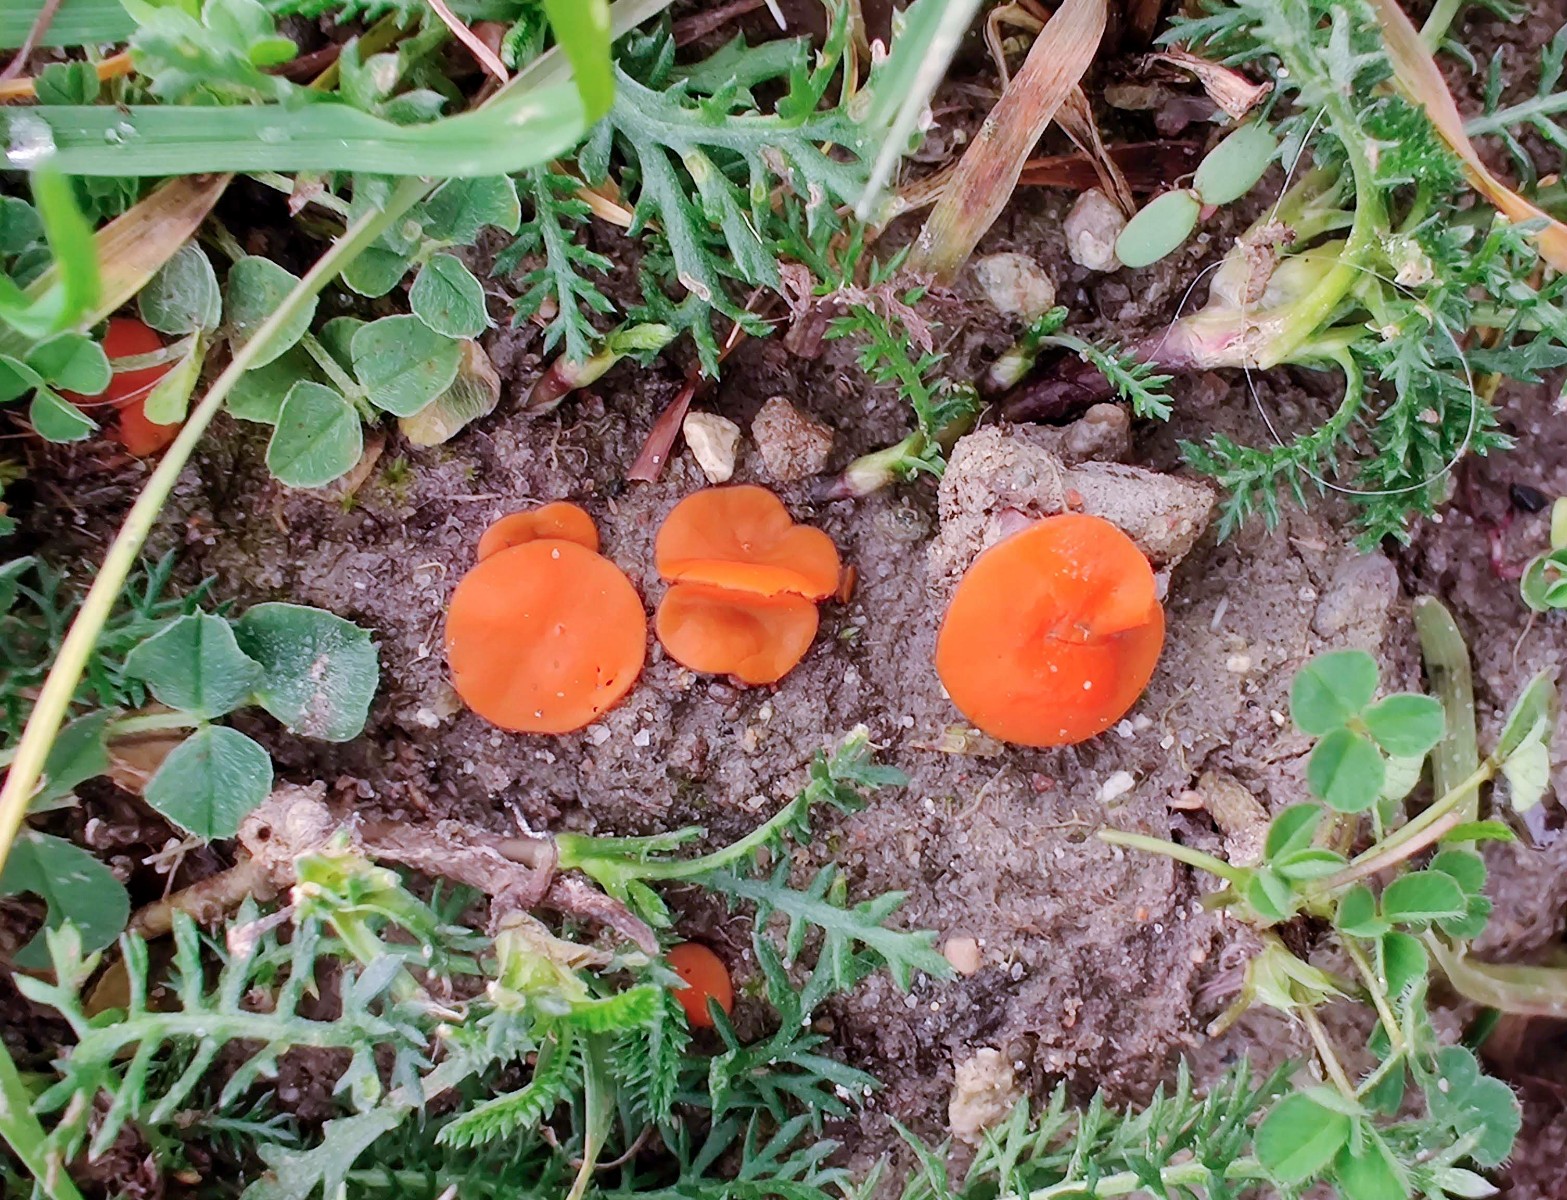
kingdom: Fungi
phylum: Ascomycota
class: Pezizomycetes
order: Pezizales
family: Pyronemataceae
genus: Melastiza
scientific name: Melastiza cornubiensis
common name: mørkrandet rødbæger
